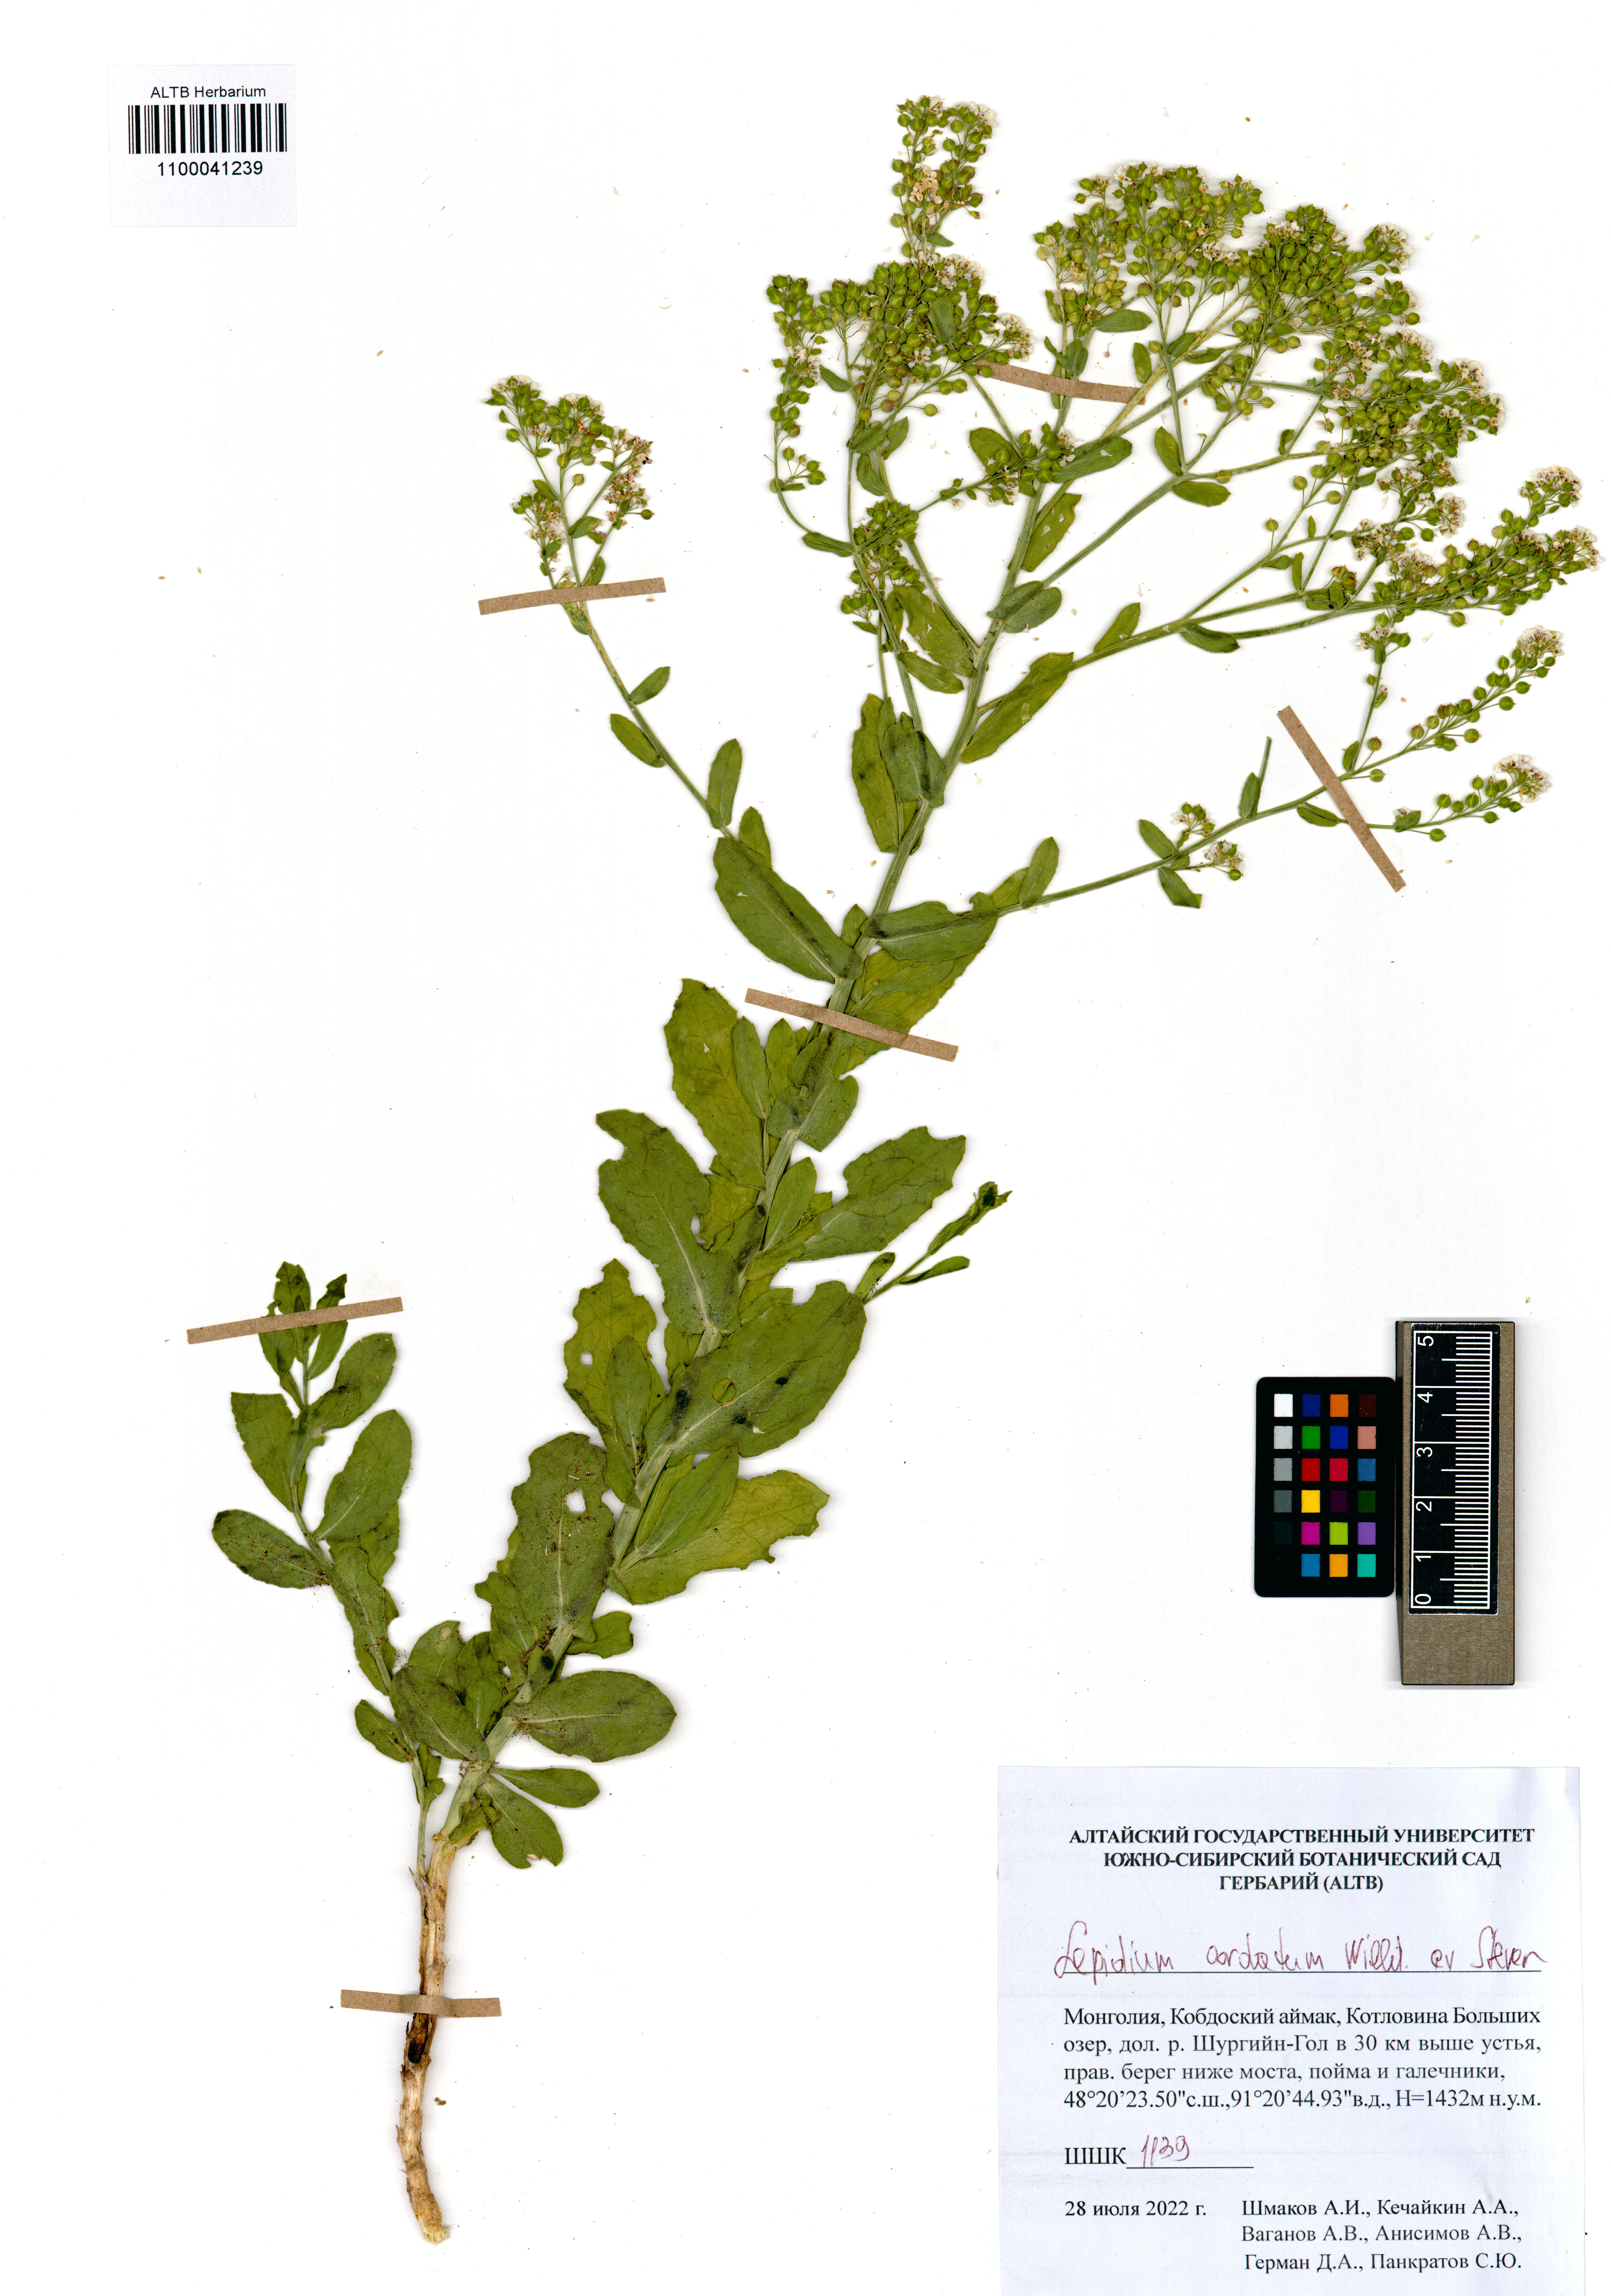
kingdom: Plantae
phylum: Tracheophyta
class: Magnoliopsida
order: Brassicales
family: Brassicaceae
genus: Lepidium
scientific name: Lepidium cordatum
